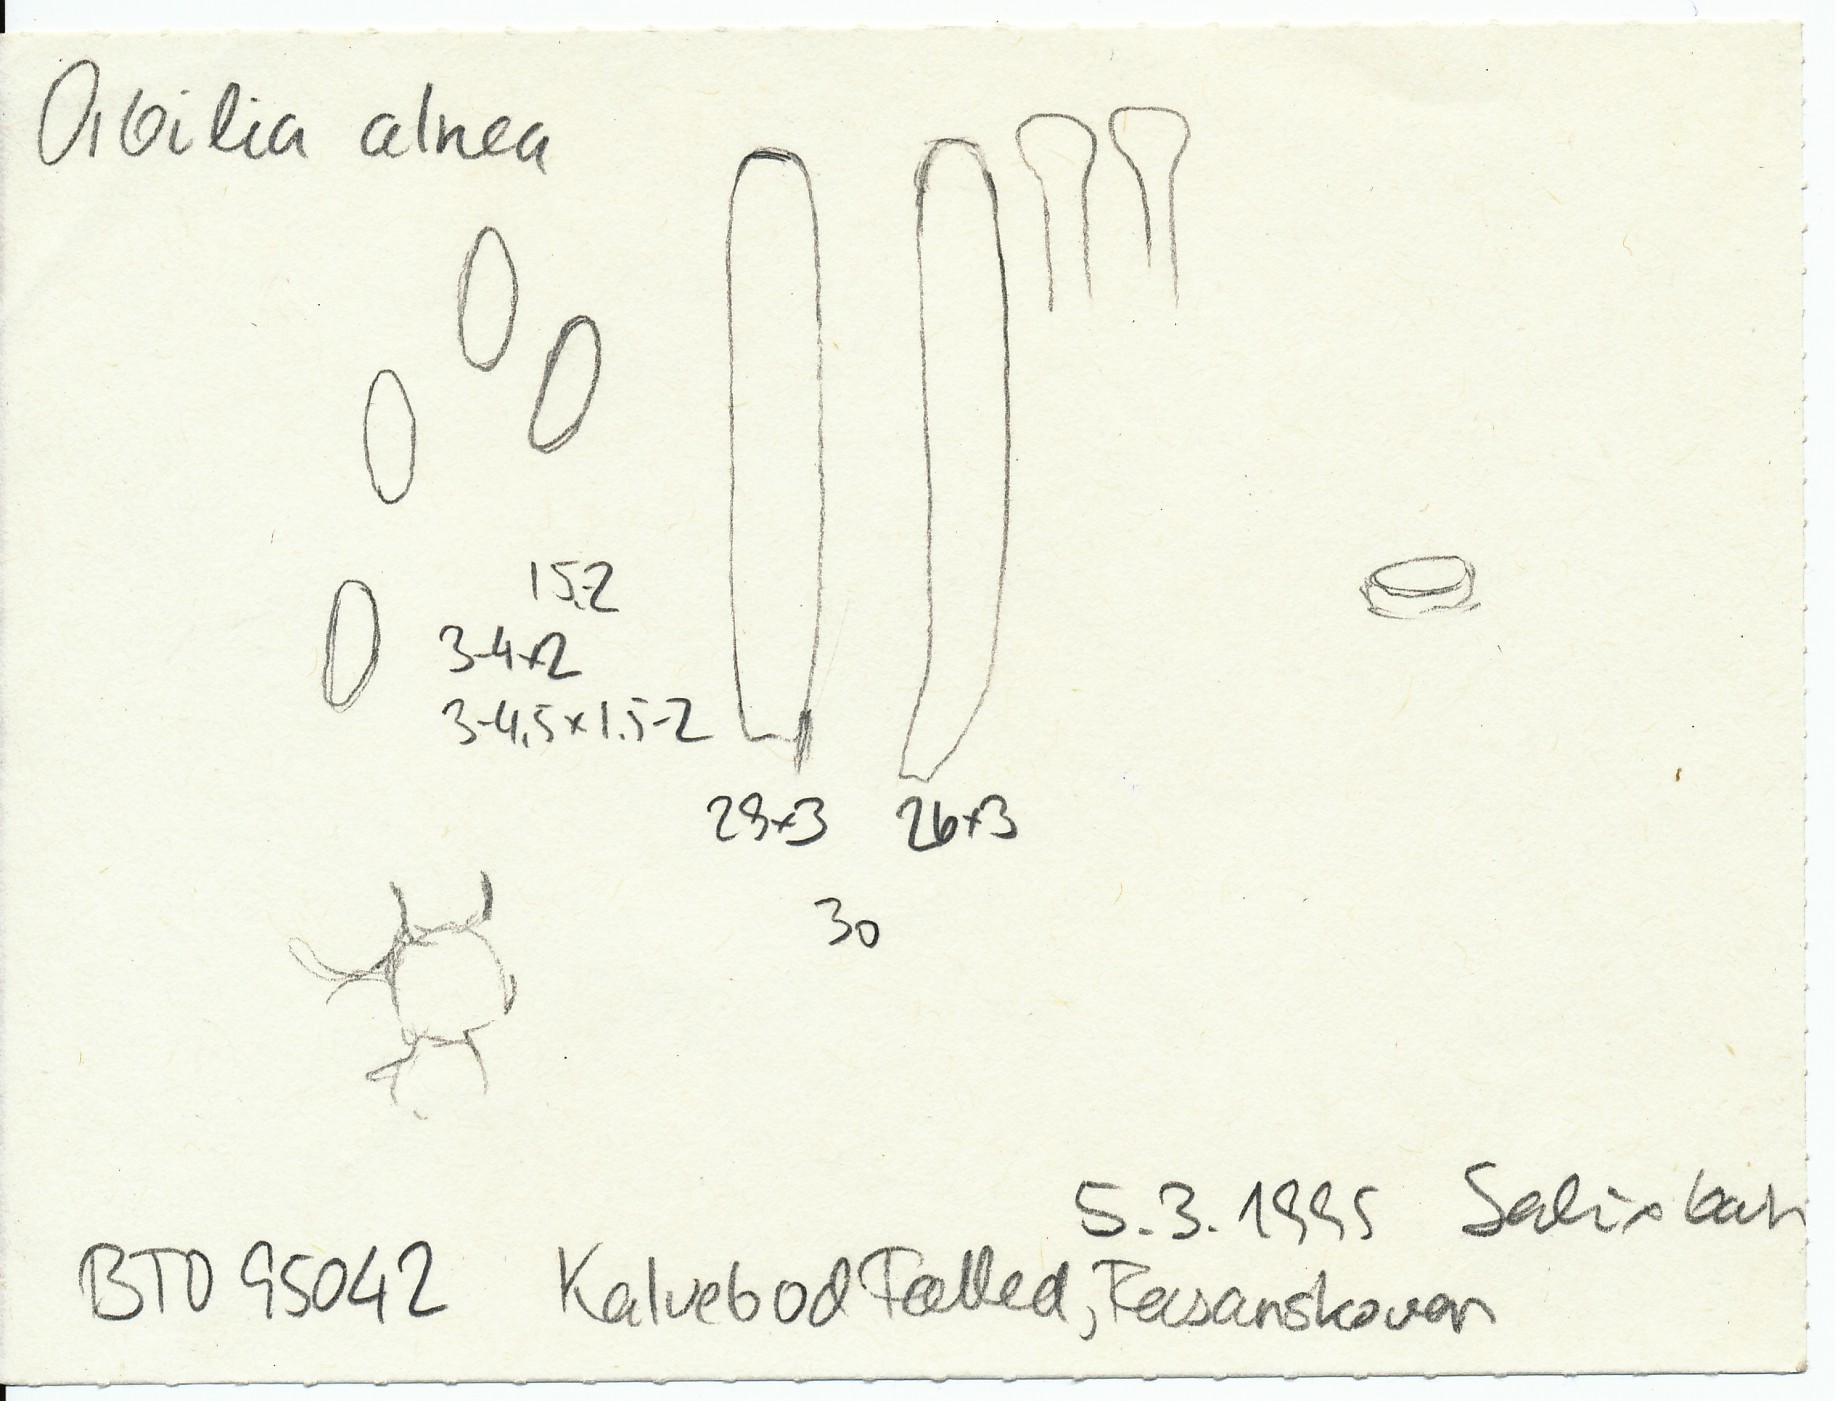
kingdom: Fungi
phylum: Ascomycota
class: Orbiliomycetes
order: Orbiliales
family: Orbiliaceae
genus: Orbilia
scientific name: Orbilia coccinella
